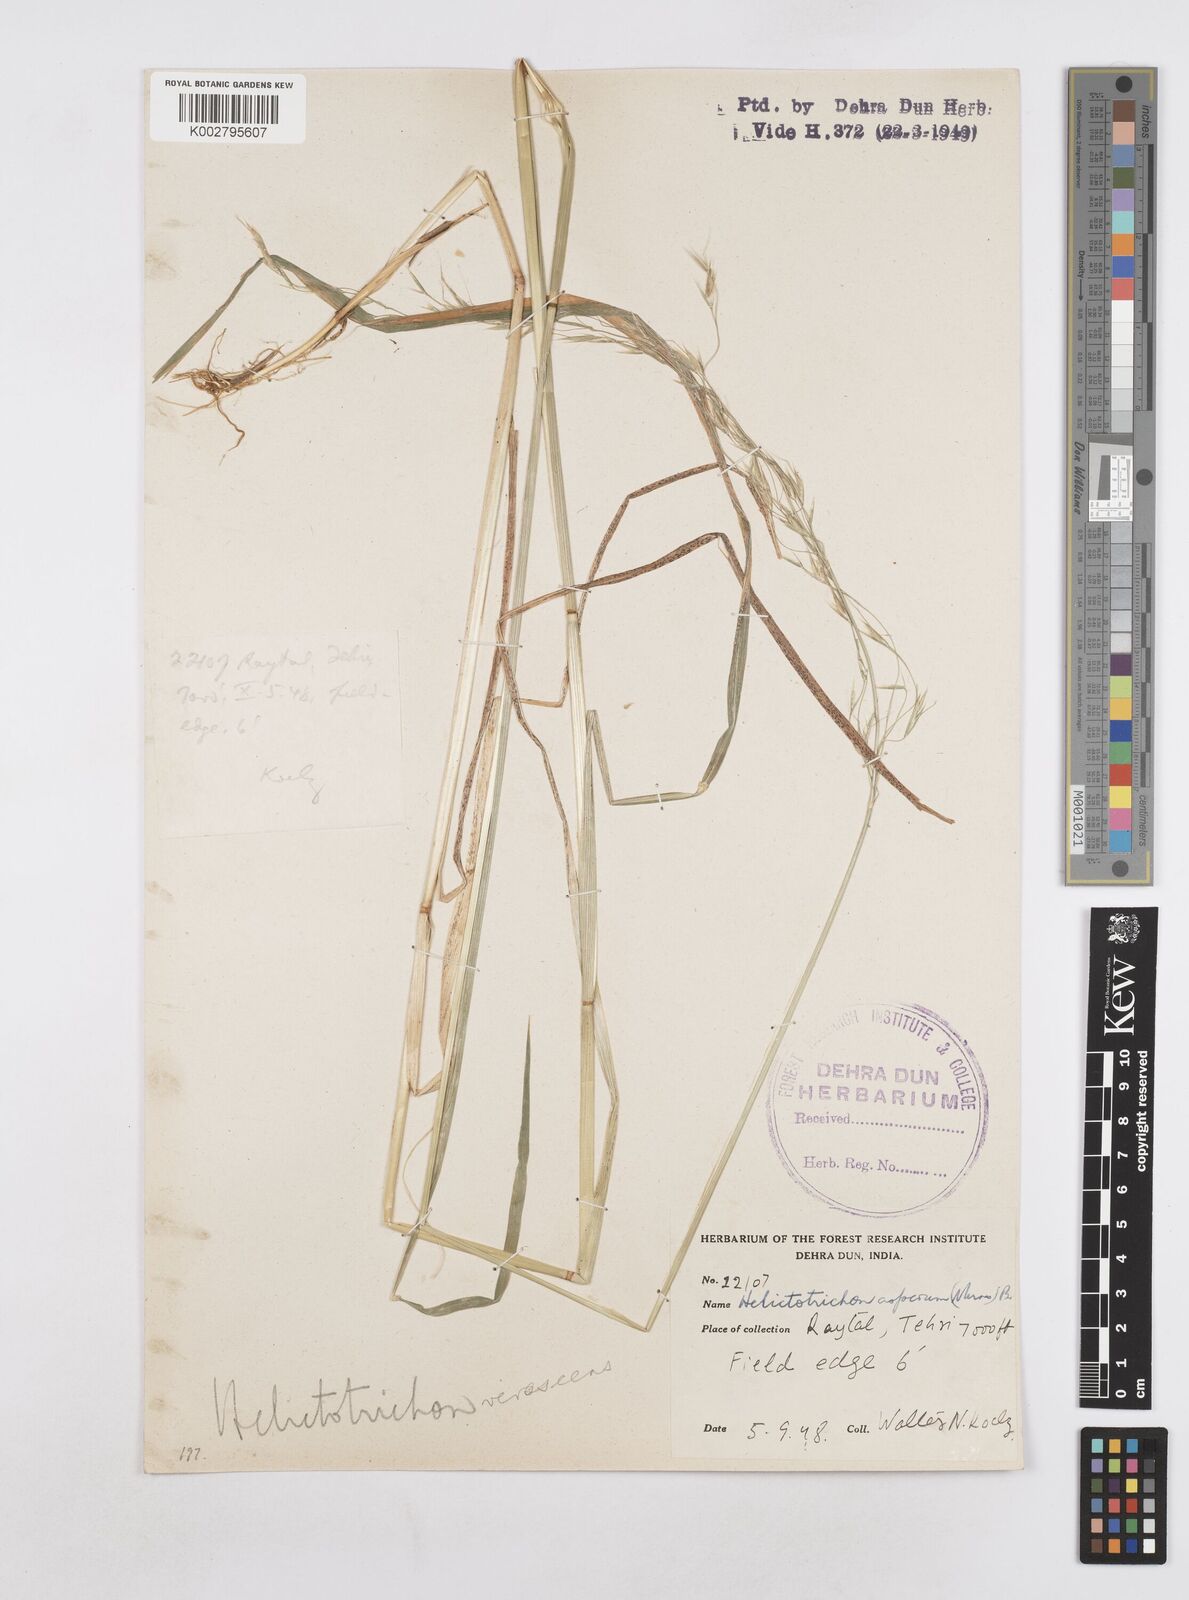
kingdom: Plantae
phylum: Tracheophyta
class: Liliopsida
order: Poales
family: Poaceae
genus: Helictotrichon
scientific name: Helictotrichon
